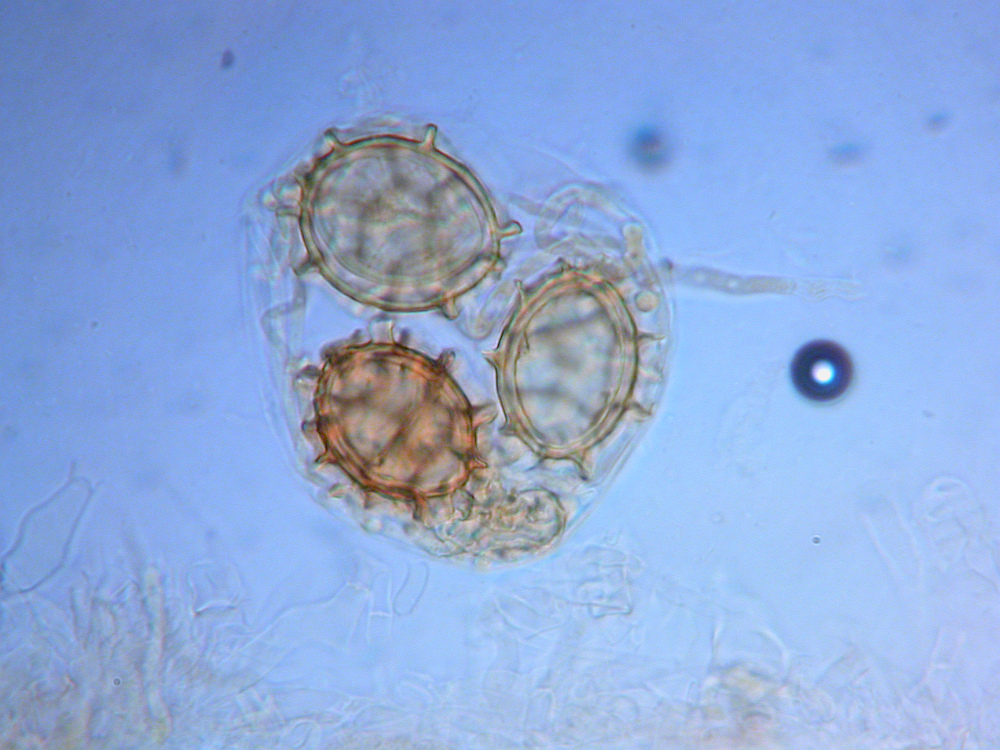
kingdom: Fungi
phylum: Ascomycota
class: Pezizomycetes
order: Pezizales
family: Tuberaceae
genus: Tuber
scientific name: Tuber aestivum
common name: sommer-trøffel
